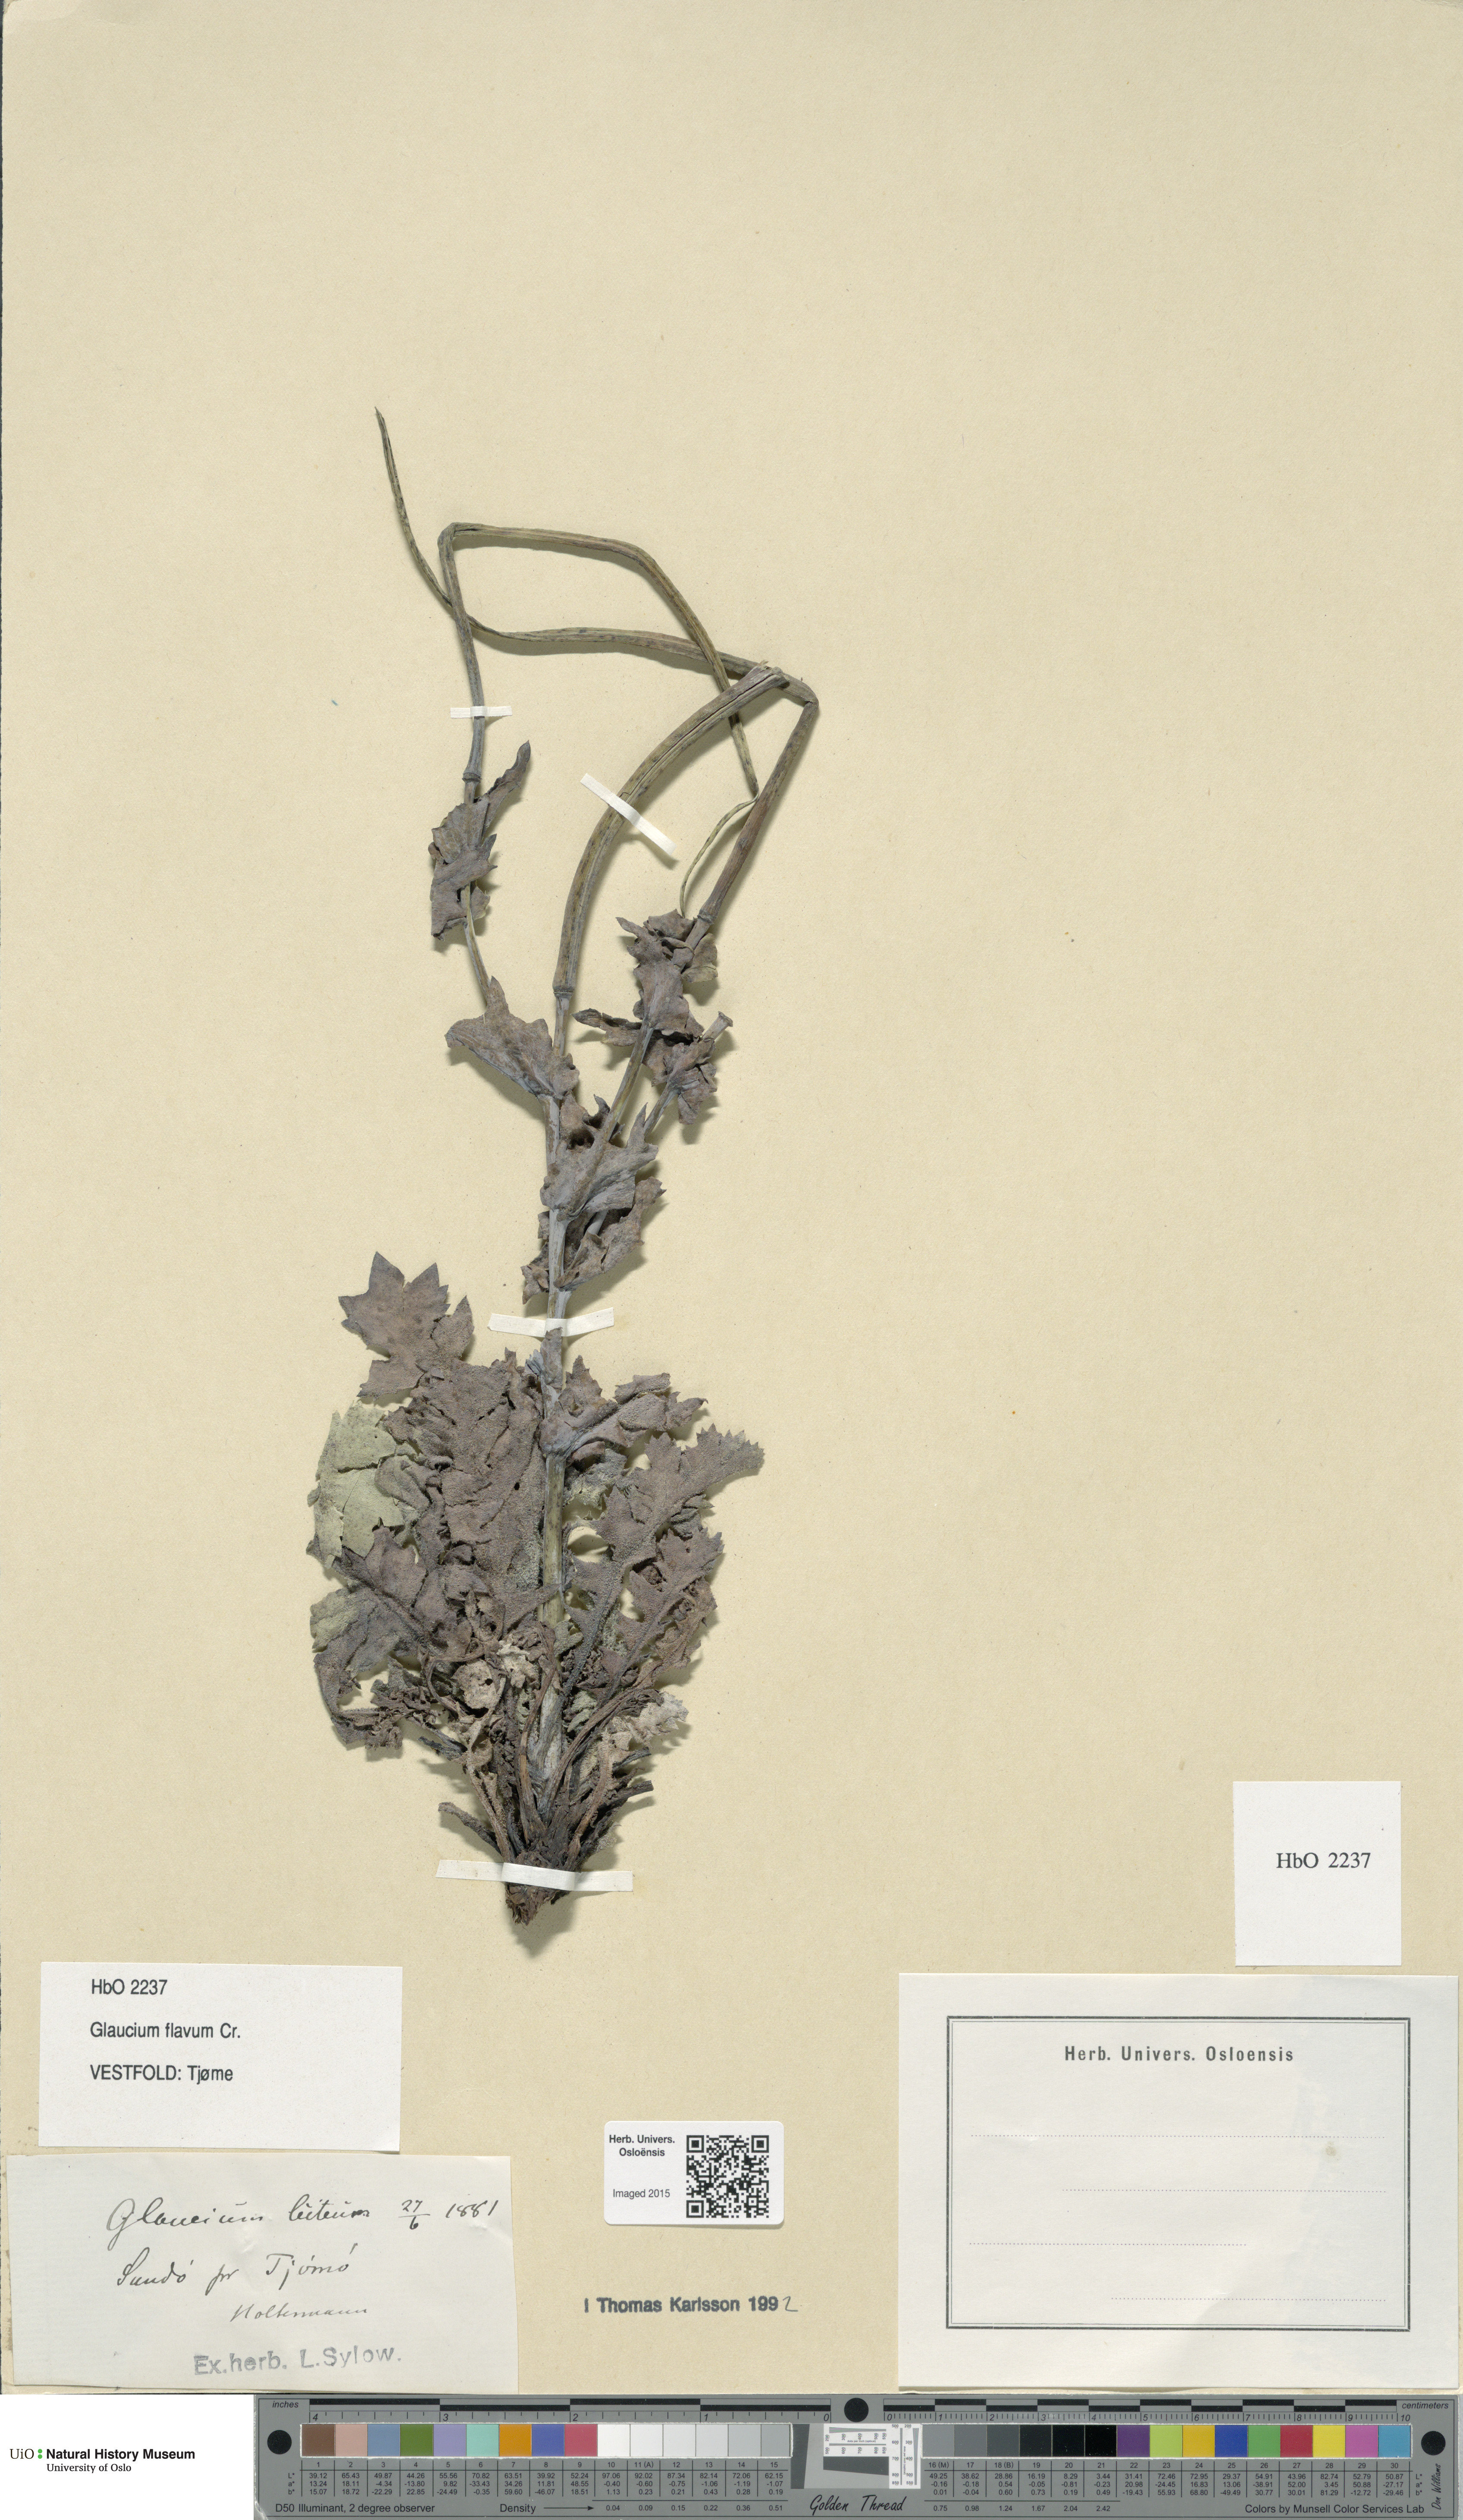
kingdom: Plantae
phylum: Tracheophyta
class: Magnoliopsida
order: Ranunculales
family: Papaveraceae
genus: Glaucium
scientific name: Glaucium flavum
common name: Yellow horned-poppy
